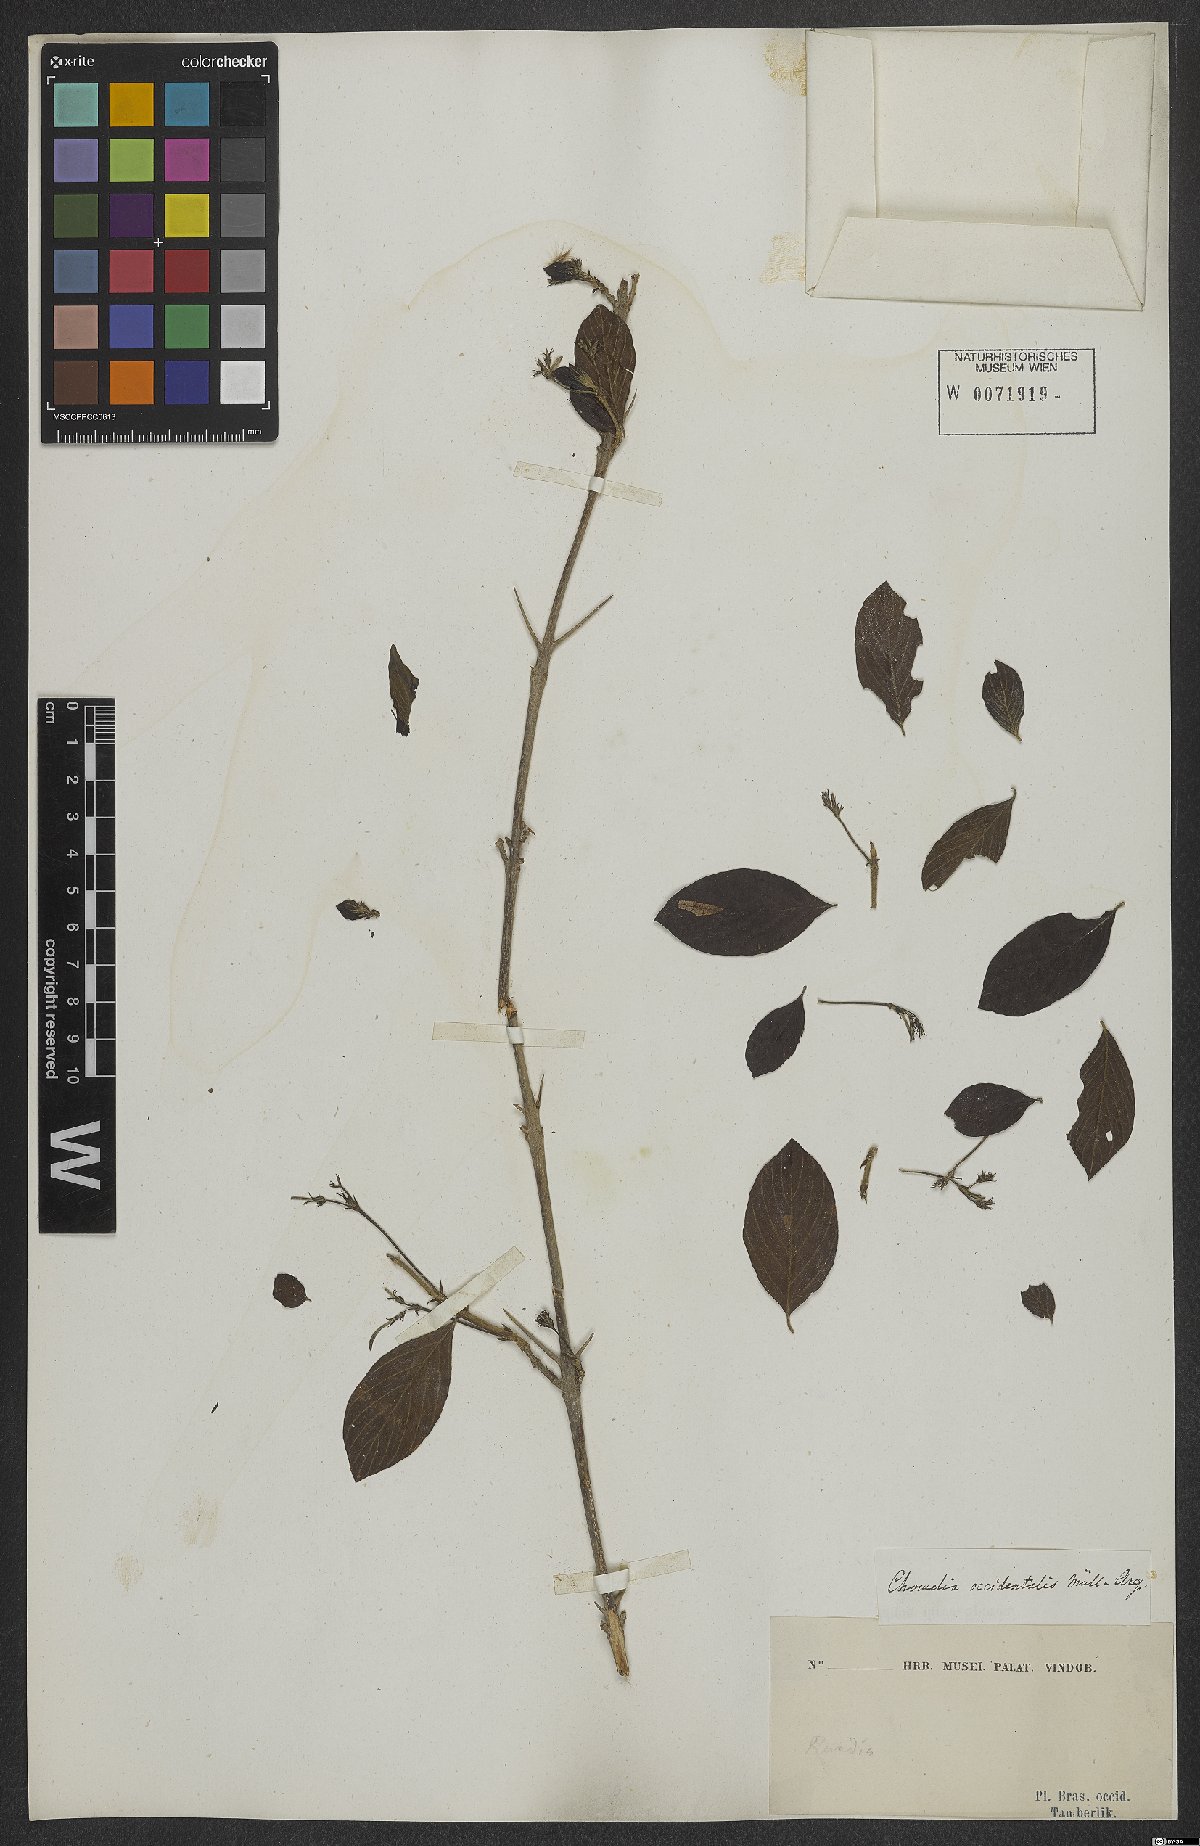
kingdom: Plantae
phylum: Tracheophyta
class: Magnoliopsida
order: Gentianales
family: Rubiaceae
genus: Chomelia
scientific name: Chomelia occidentalis
